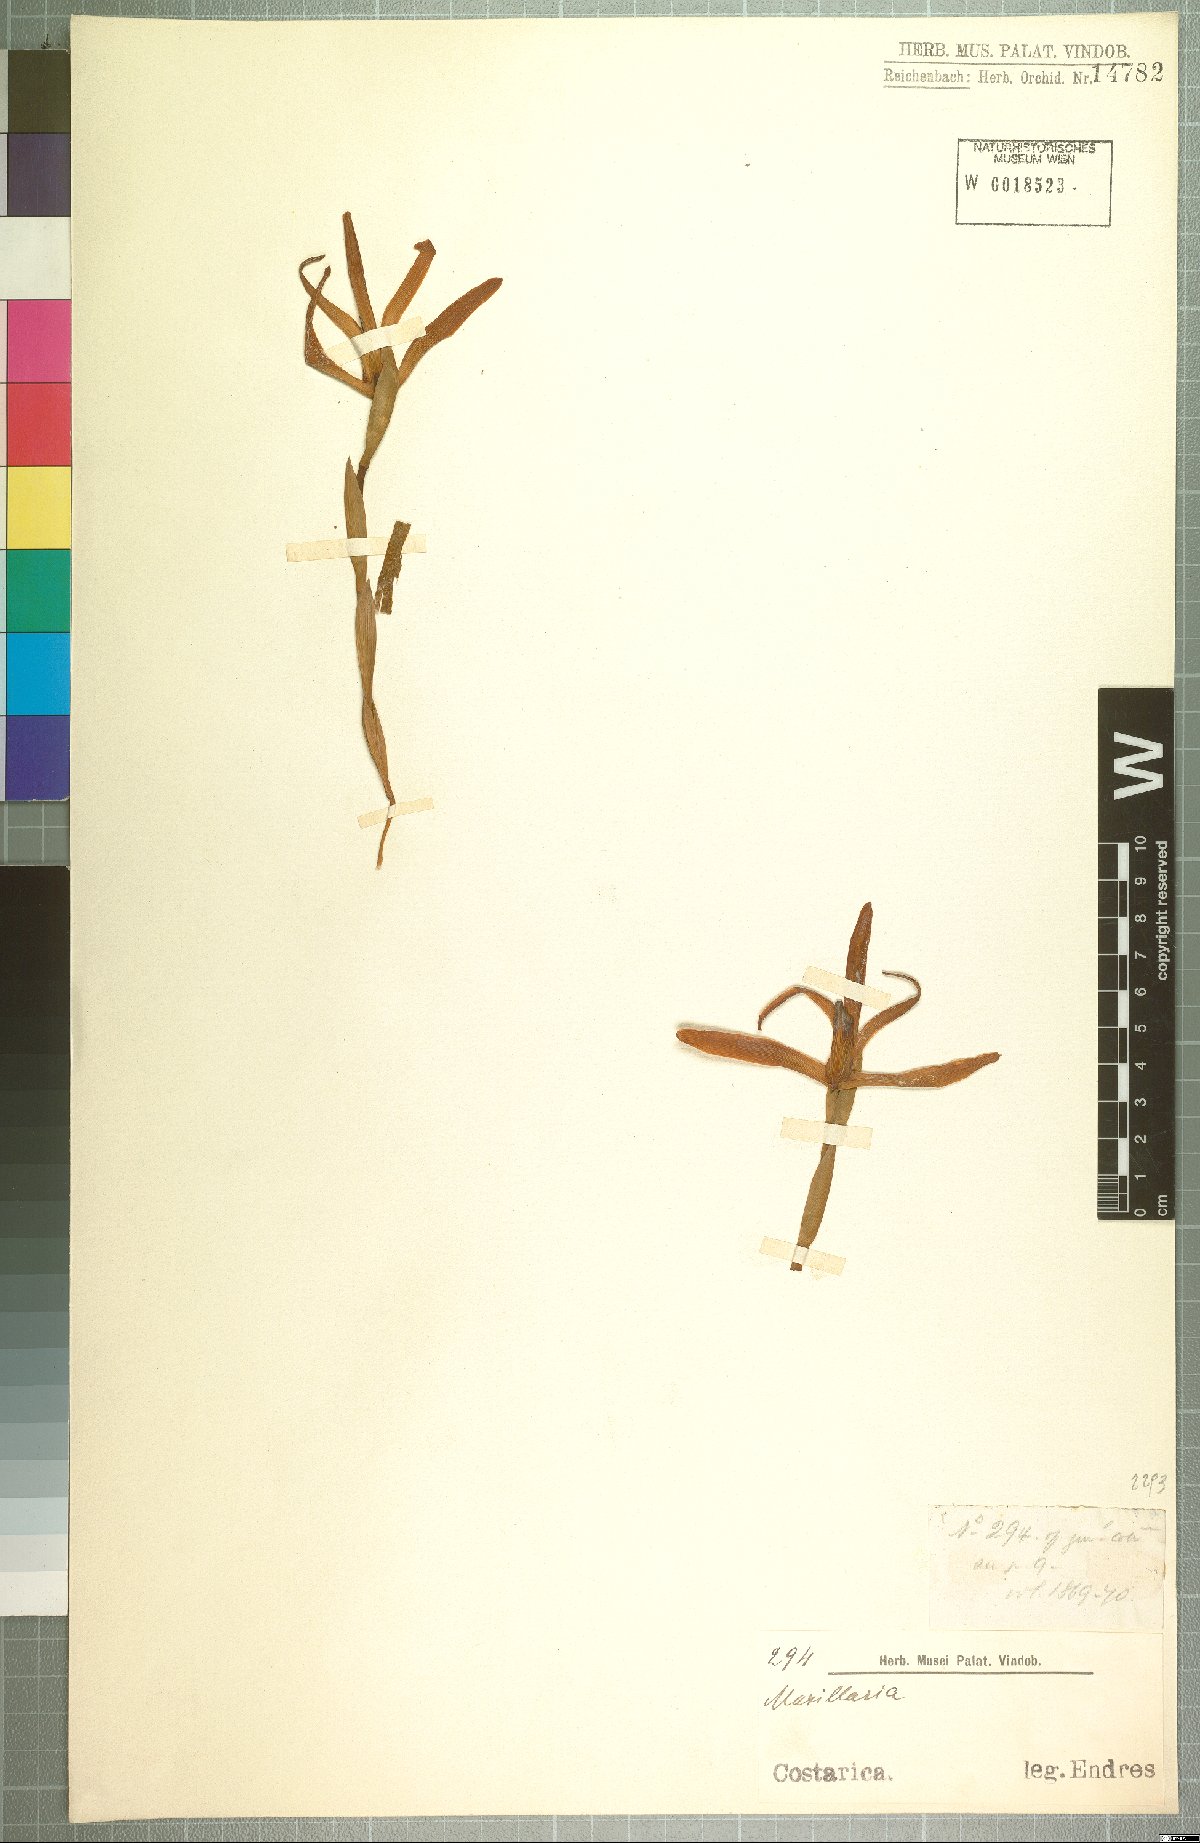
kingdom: Plantae
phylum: Tracheophyta
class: Liliopsida
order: Asparagales
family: Orchidaceae
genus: Maxillaria
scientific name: Maxillaria
